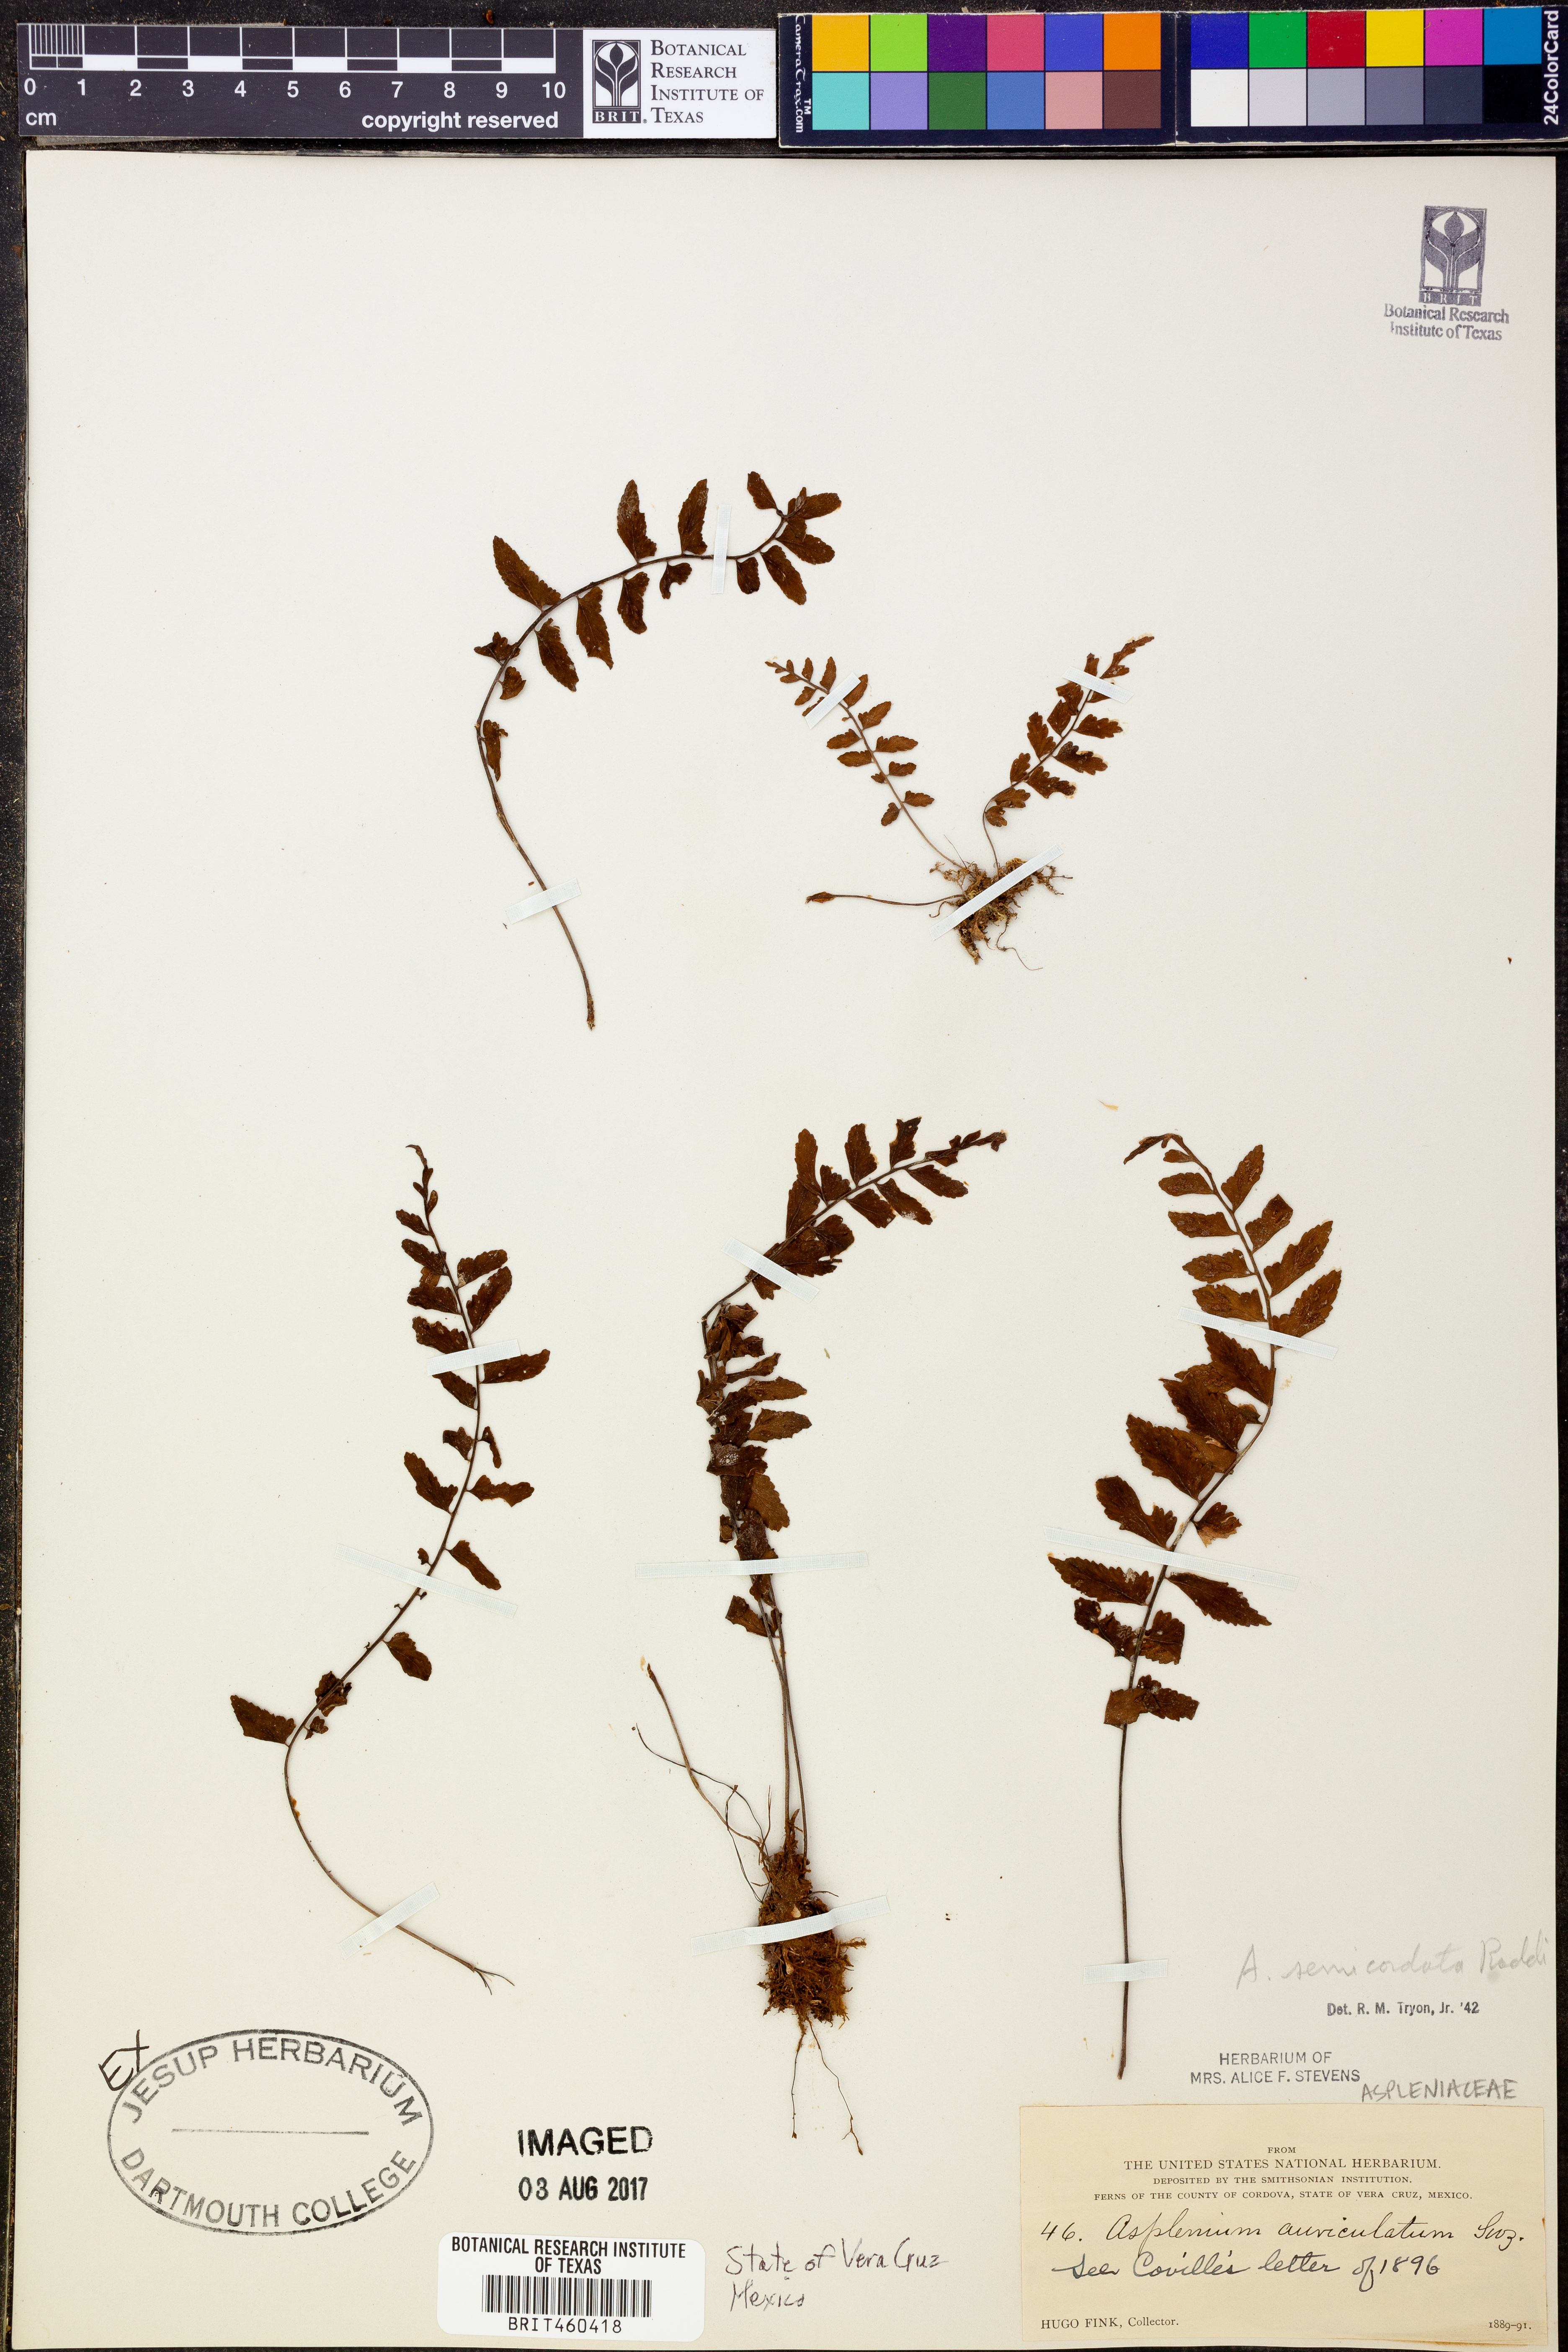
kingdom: Plantae
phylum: Tracheophyta
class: Polypodiopsida
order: Polypodiales
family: Aspleniaceae
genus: Asplenium
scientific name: Asplenium auriculatum
